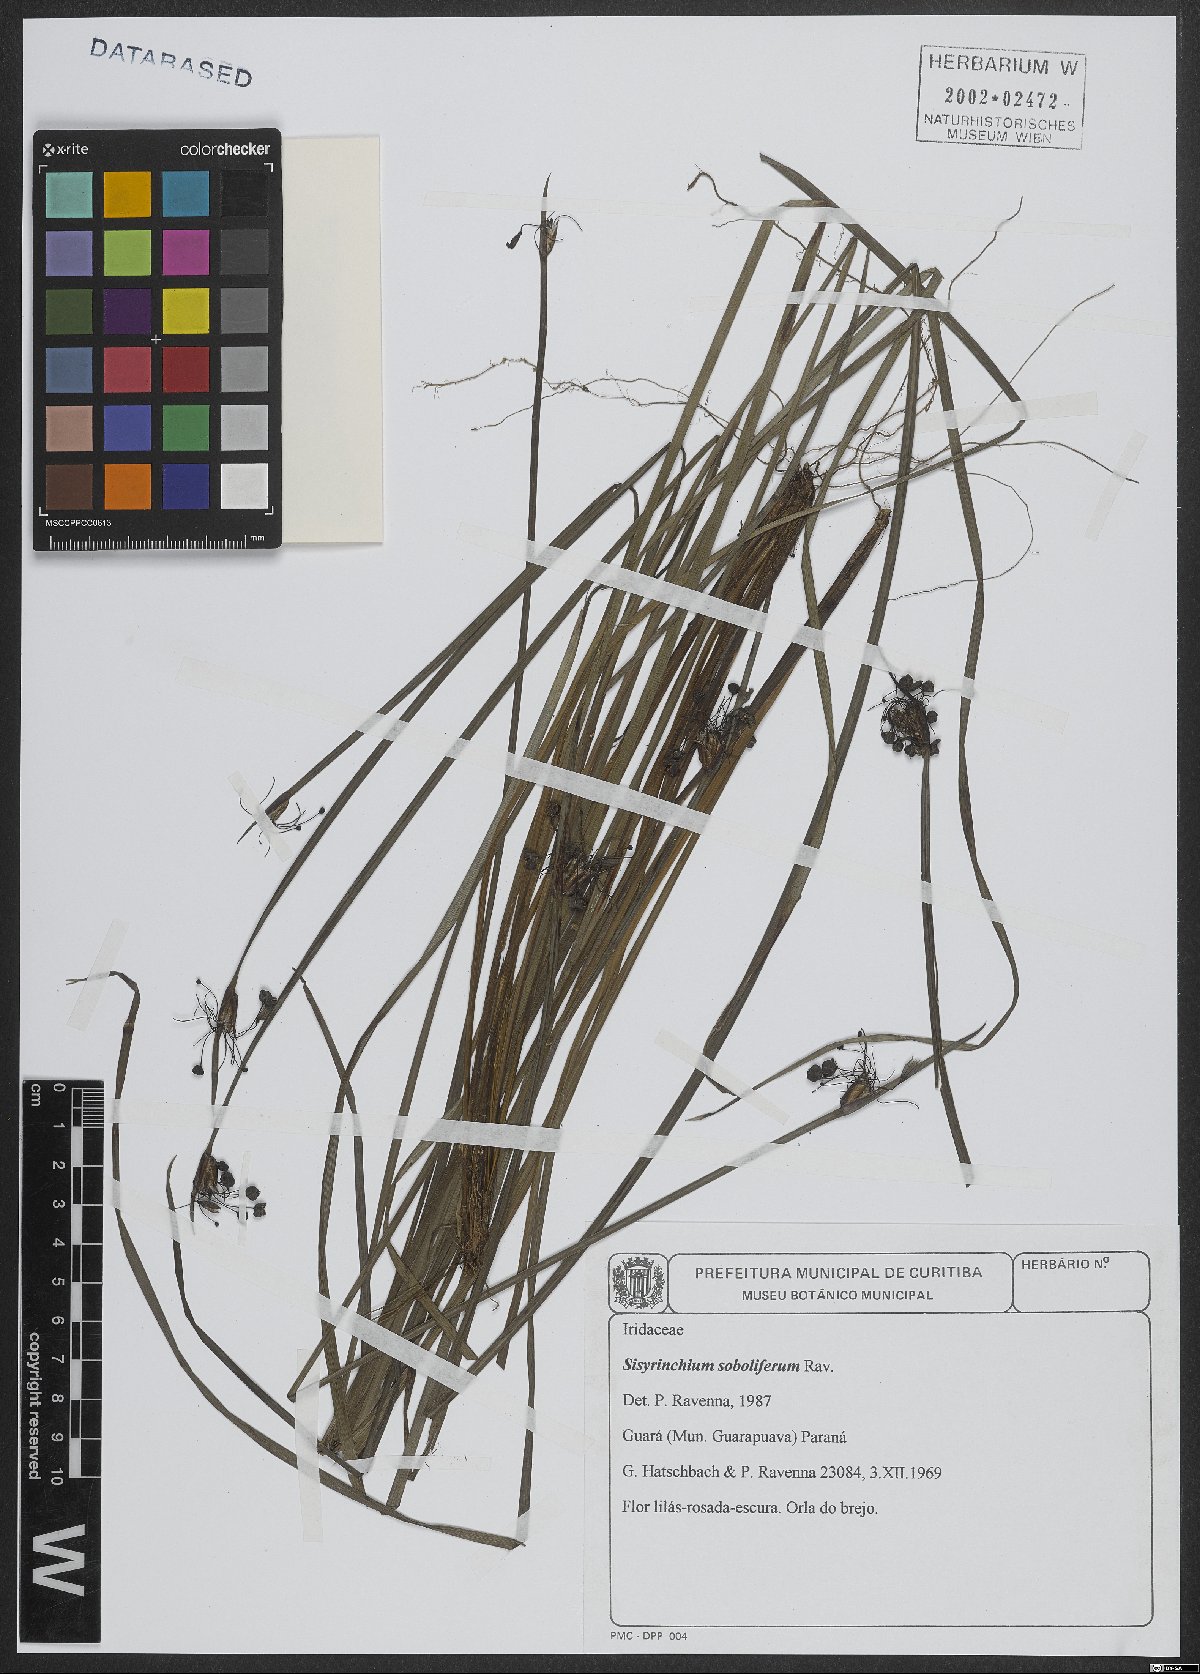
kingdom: Plantae
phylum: Tracheophyta
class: Liliopsida
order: Asparagales
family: Iridaceae
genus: Sisyrinchium
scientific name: Sisyrinchium soboliferum
